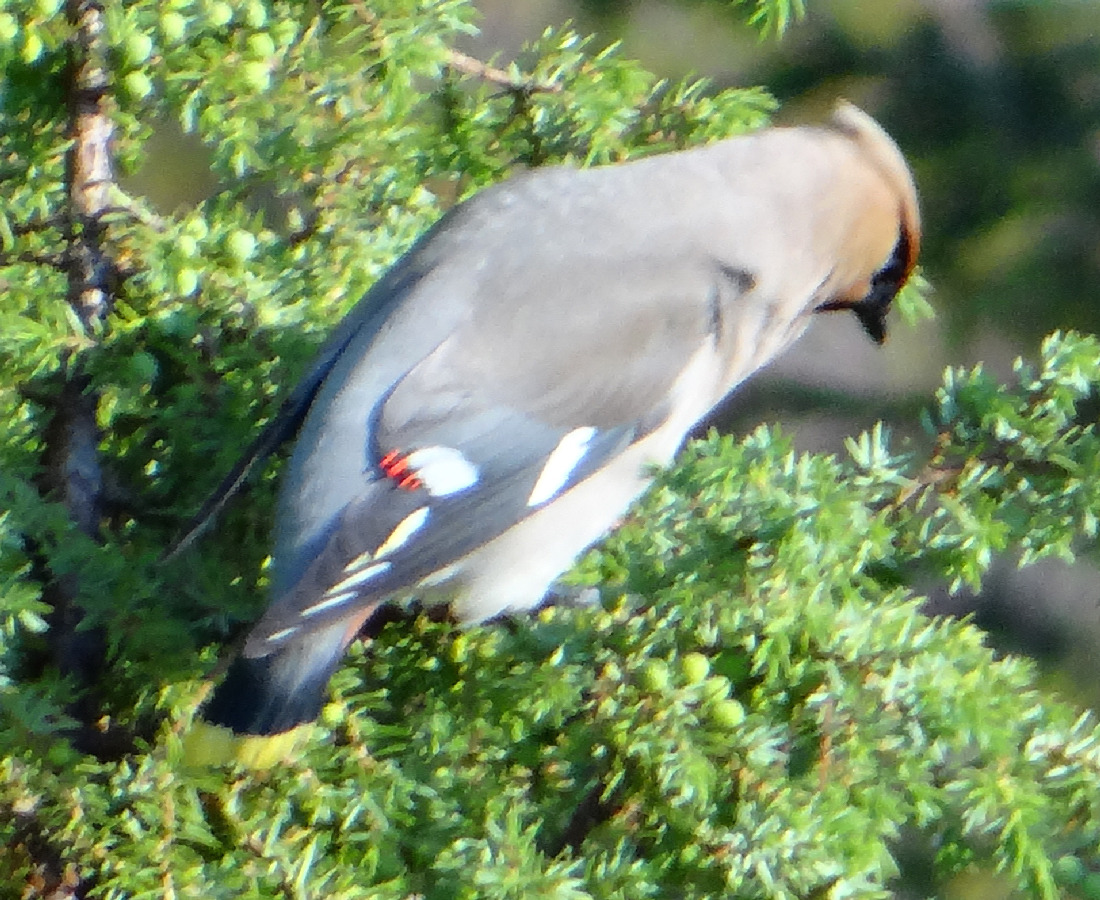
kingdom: Animalia
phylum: Chordata
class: Aves
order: Passeriformes
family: Bombycillidae
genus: Bombycilla
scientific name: Bombycilla garrulus
